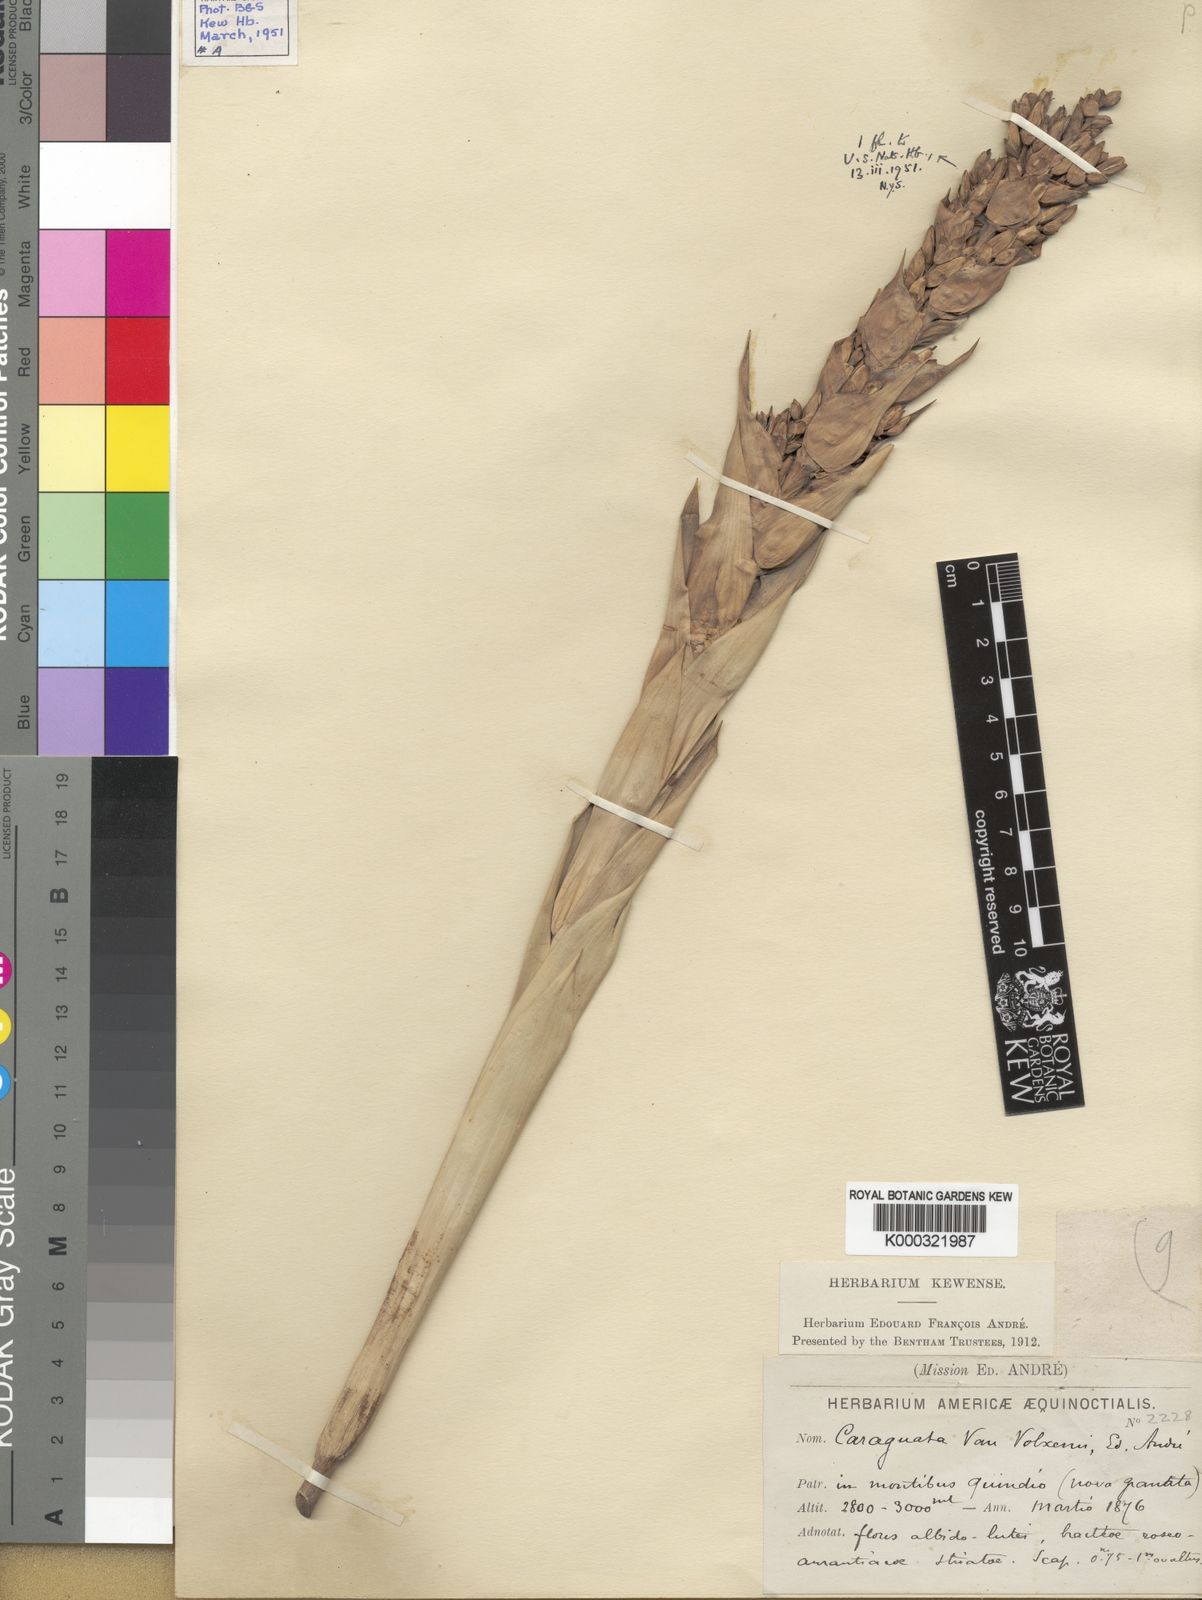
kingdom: Plantae
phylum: Tracheophyta
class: Liliopsida
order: Poales
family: Bromeliaceae
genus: Guzmania
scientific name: Guzmania
